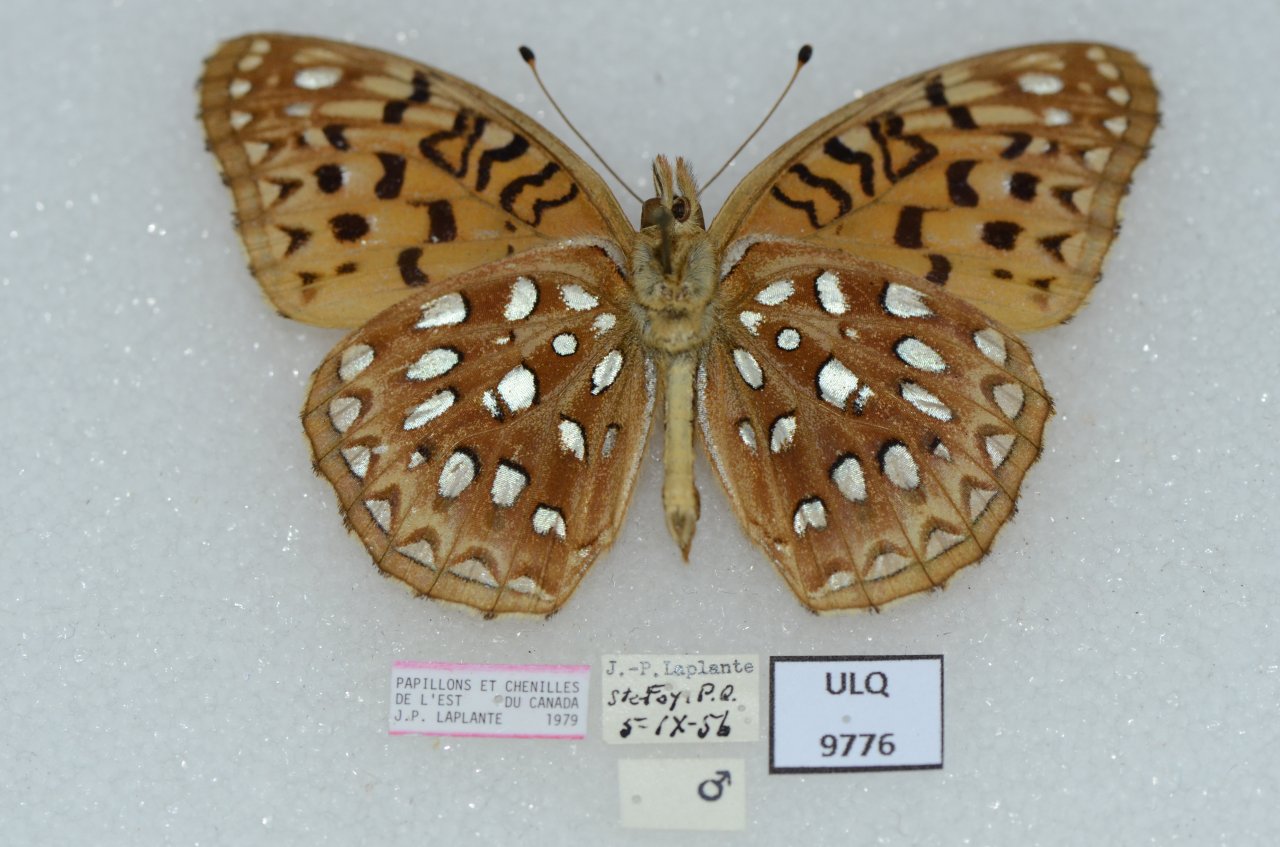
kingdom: Animalia
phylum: Arthropoda
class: Insecta
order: Lepidoptera
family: Nymphalidae
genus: Speyeria
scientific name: Speyeria aphrodite
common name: Aphrodite Fritillary
